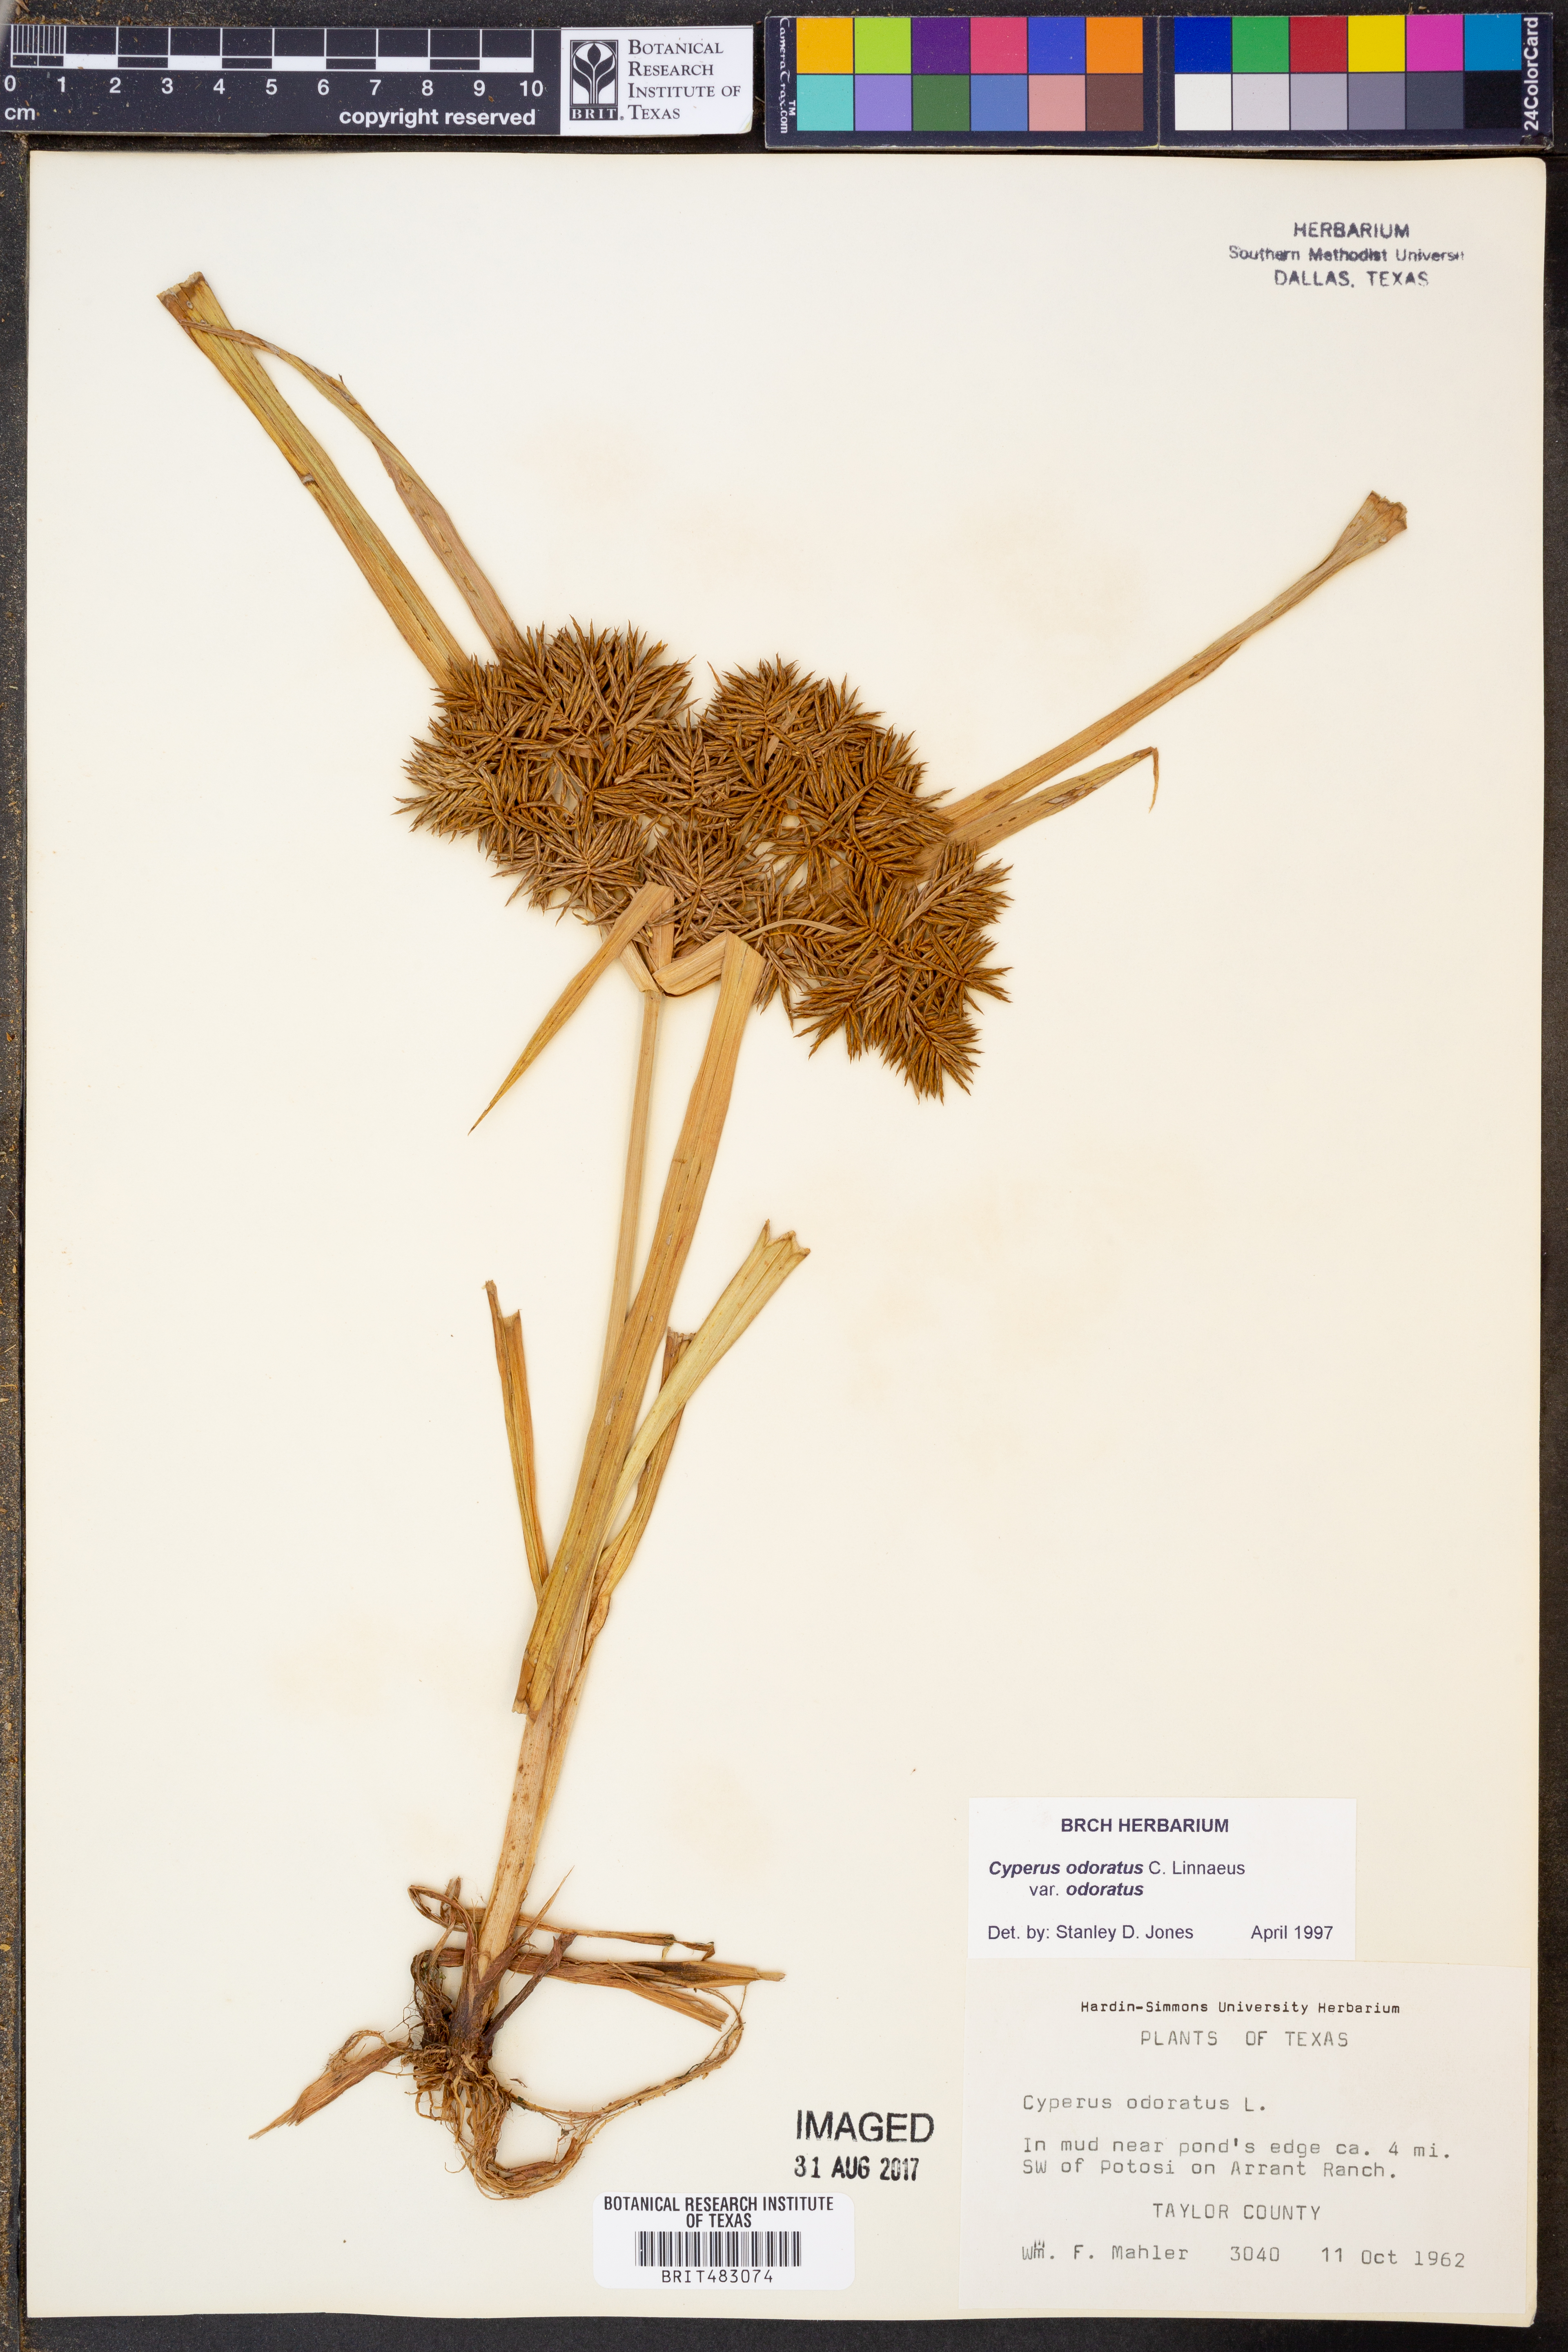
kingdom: Plantae
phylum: Tracheophyta
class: Liliopsida
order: Poales
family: Cyperaceae
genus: Cyperus
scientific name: Cyperus odoratus
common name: Fragrant flatsedge
